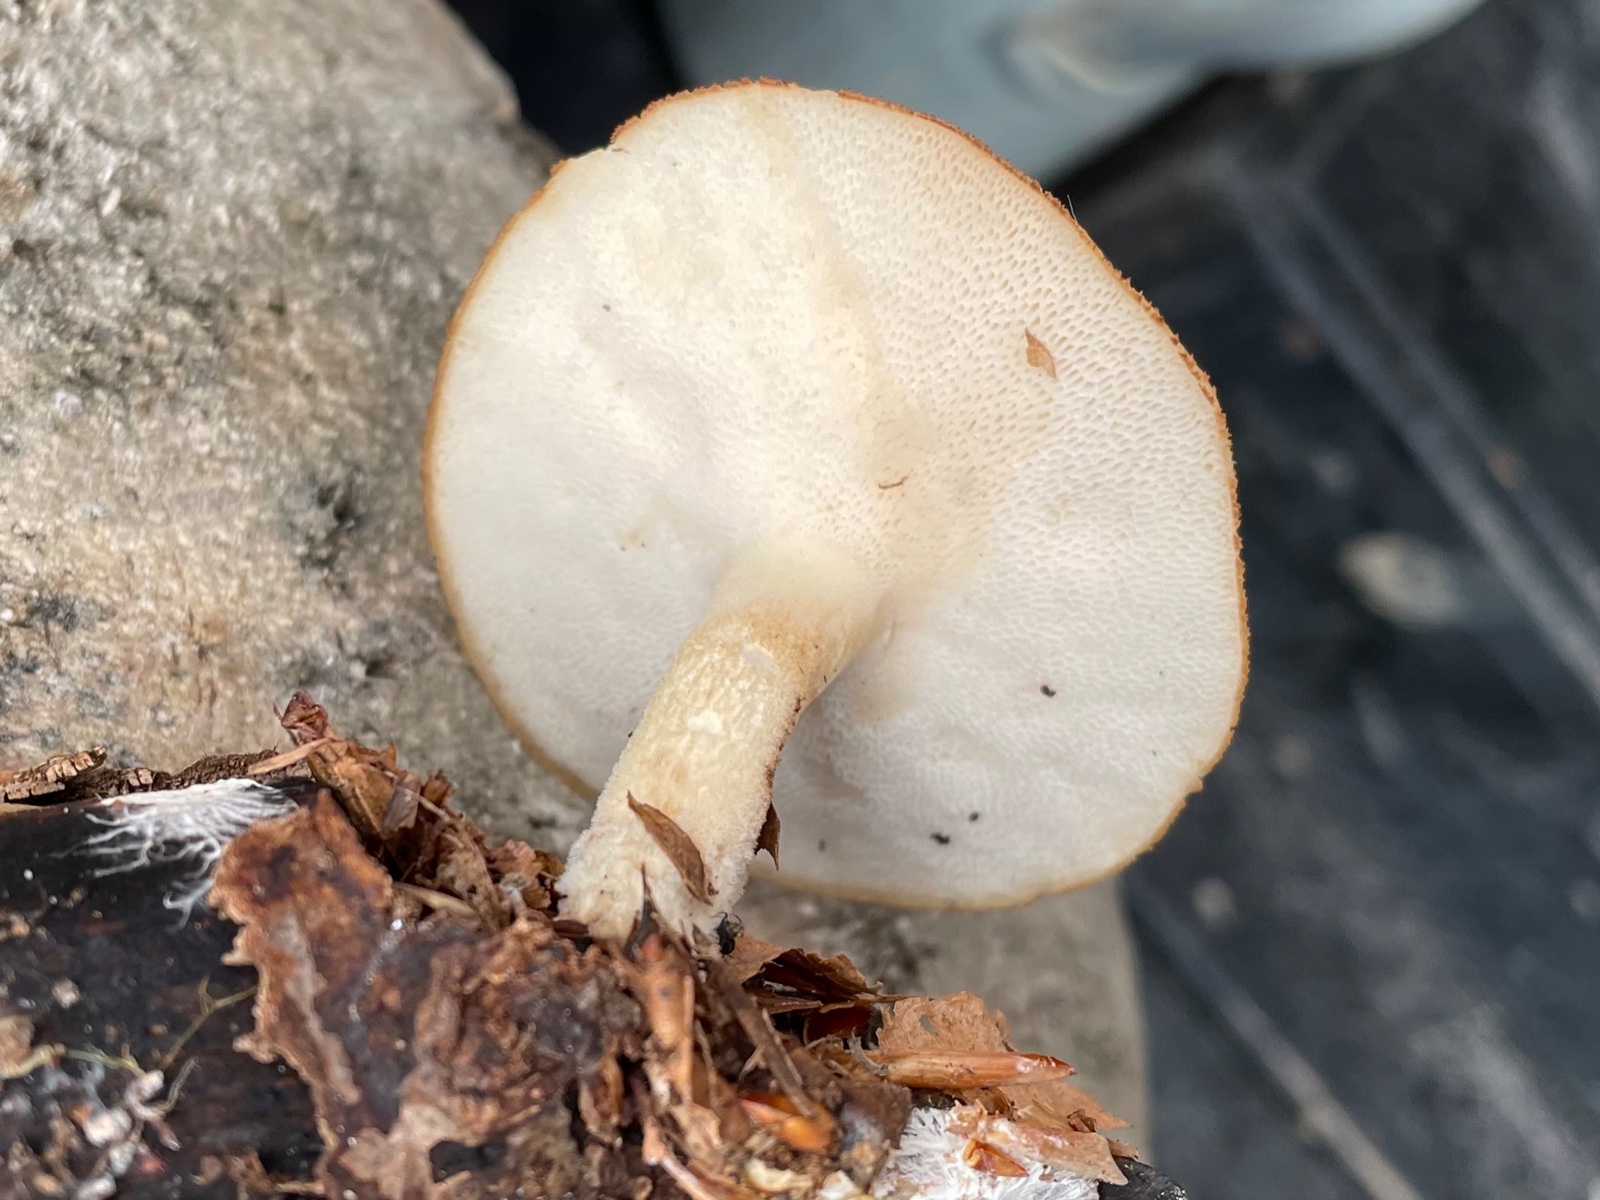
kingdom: Fungi
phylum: Basidiomycota
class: Agaricomycetes
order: Polyporales
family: Polyporaceae
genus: Polyporus
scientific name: Polyporus tuberaster
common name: knoldet stilkporesvamp
